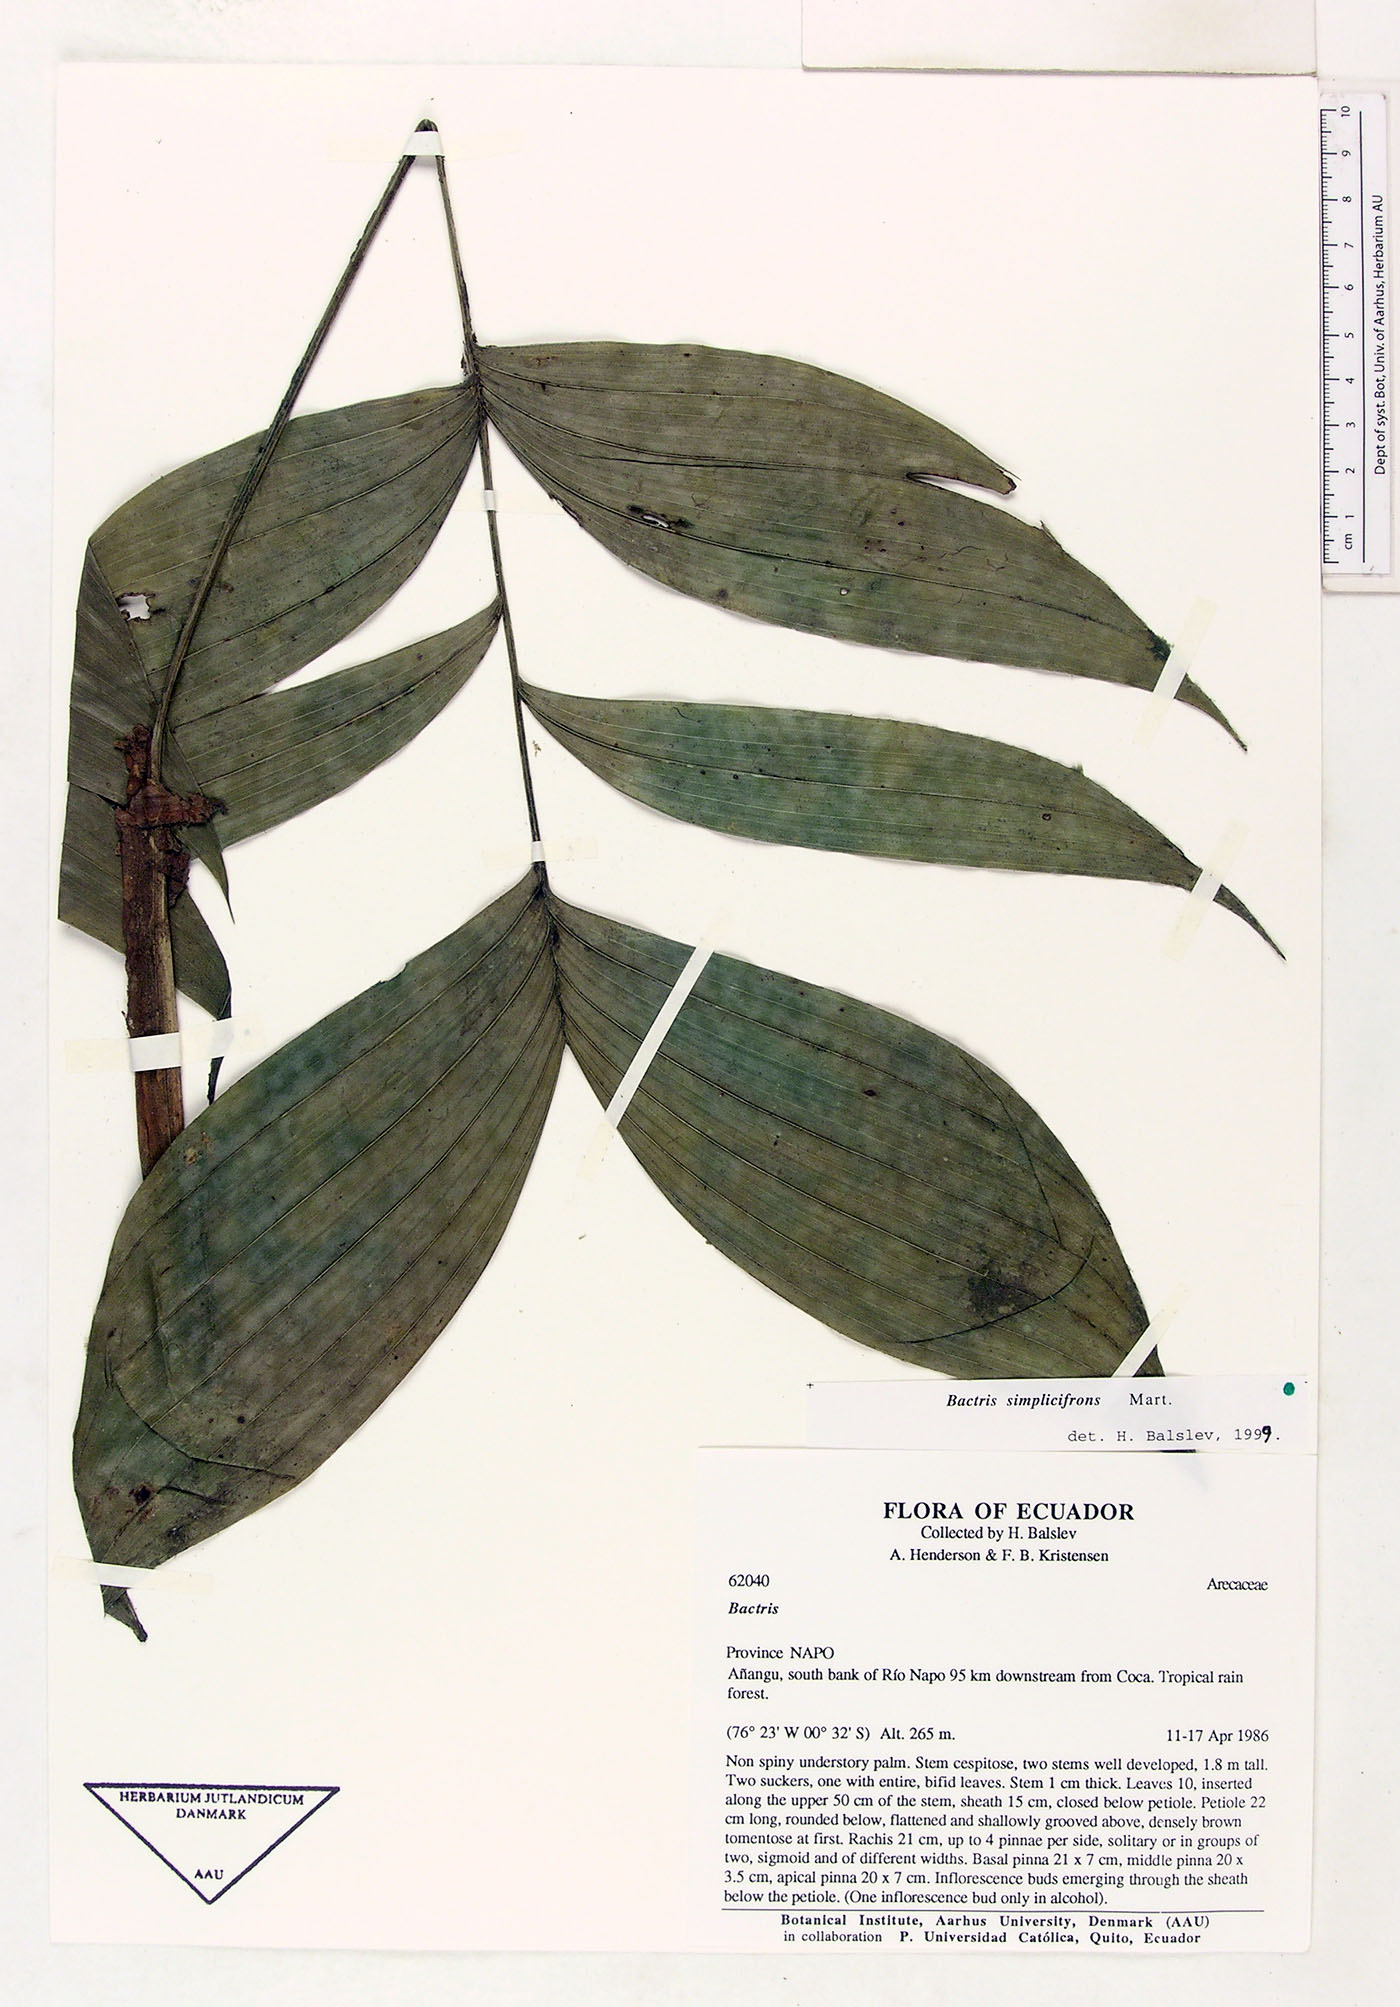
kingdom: Plantae
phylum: Tracheophyta
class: Liliopsida
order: Arecales
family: Arecaceae
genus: Bactris
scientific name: Bactris simplicifrons
